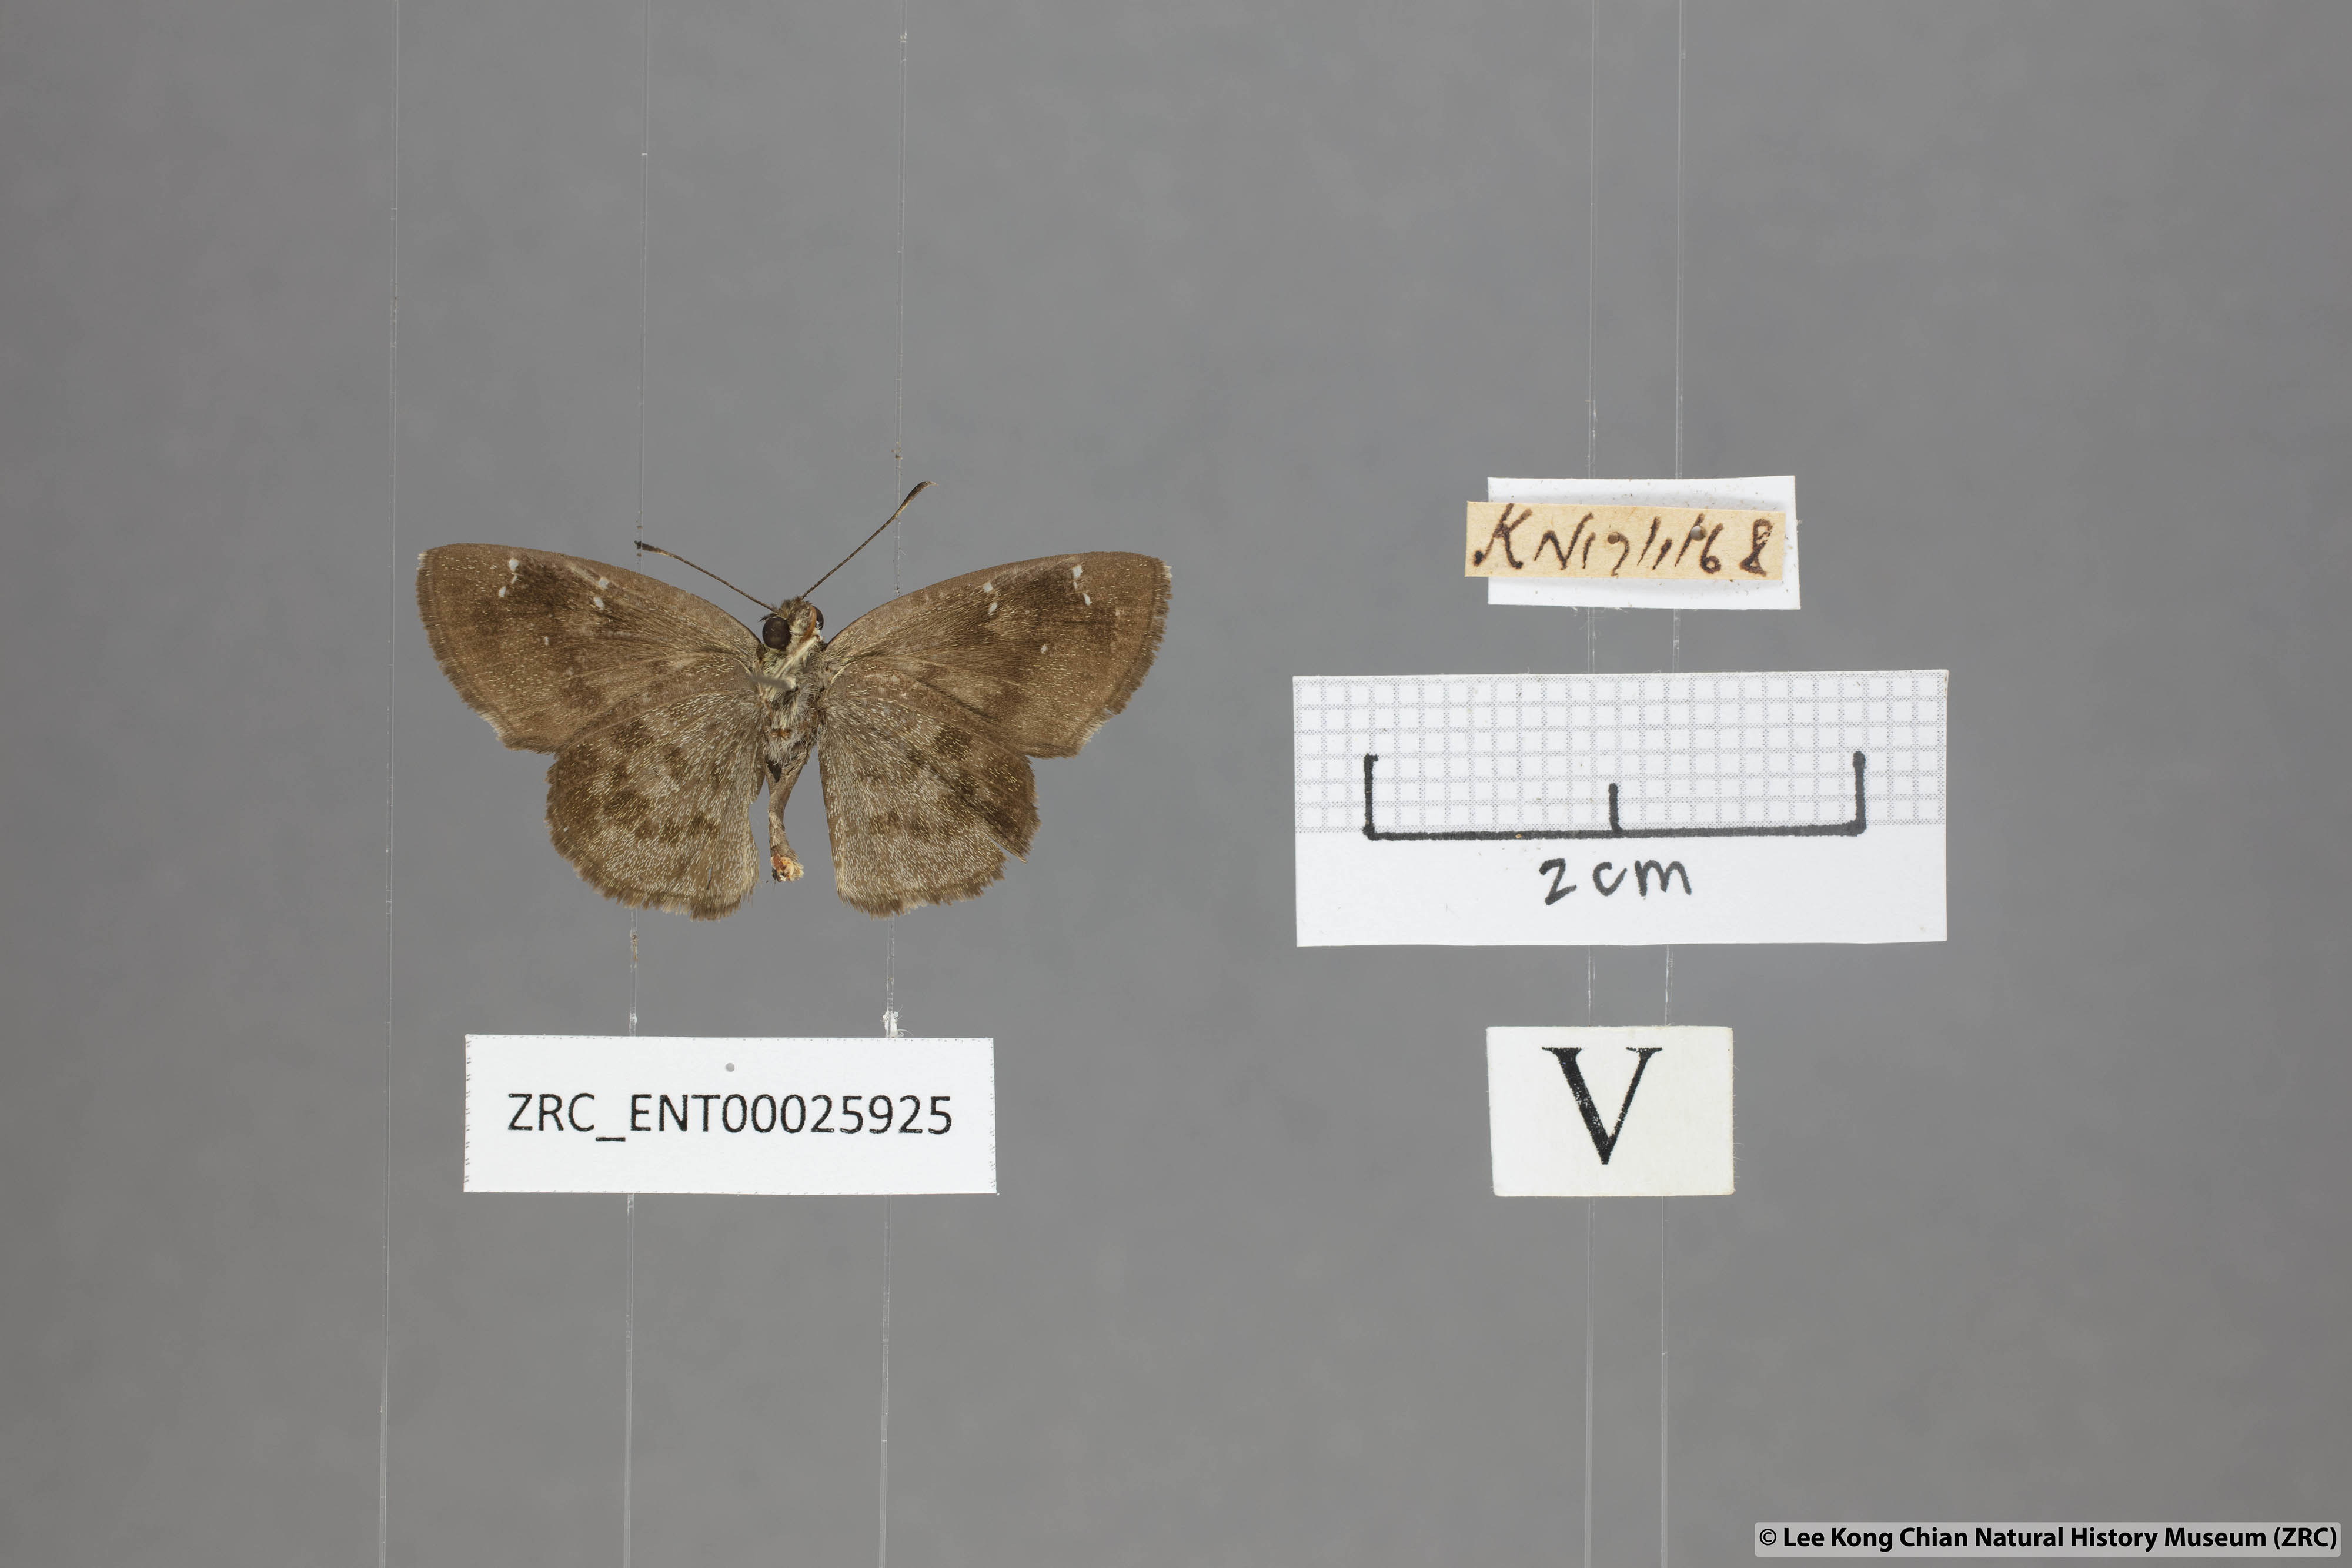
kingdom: Animalia
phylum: Arthropoda
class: Insecta
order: Lepidoptera
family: Hesperiidae
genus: Sarangesa
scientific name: Sarangesa dasahara
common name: Common small flat
